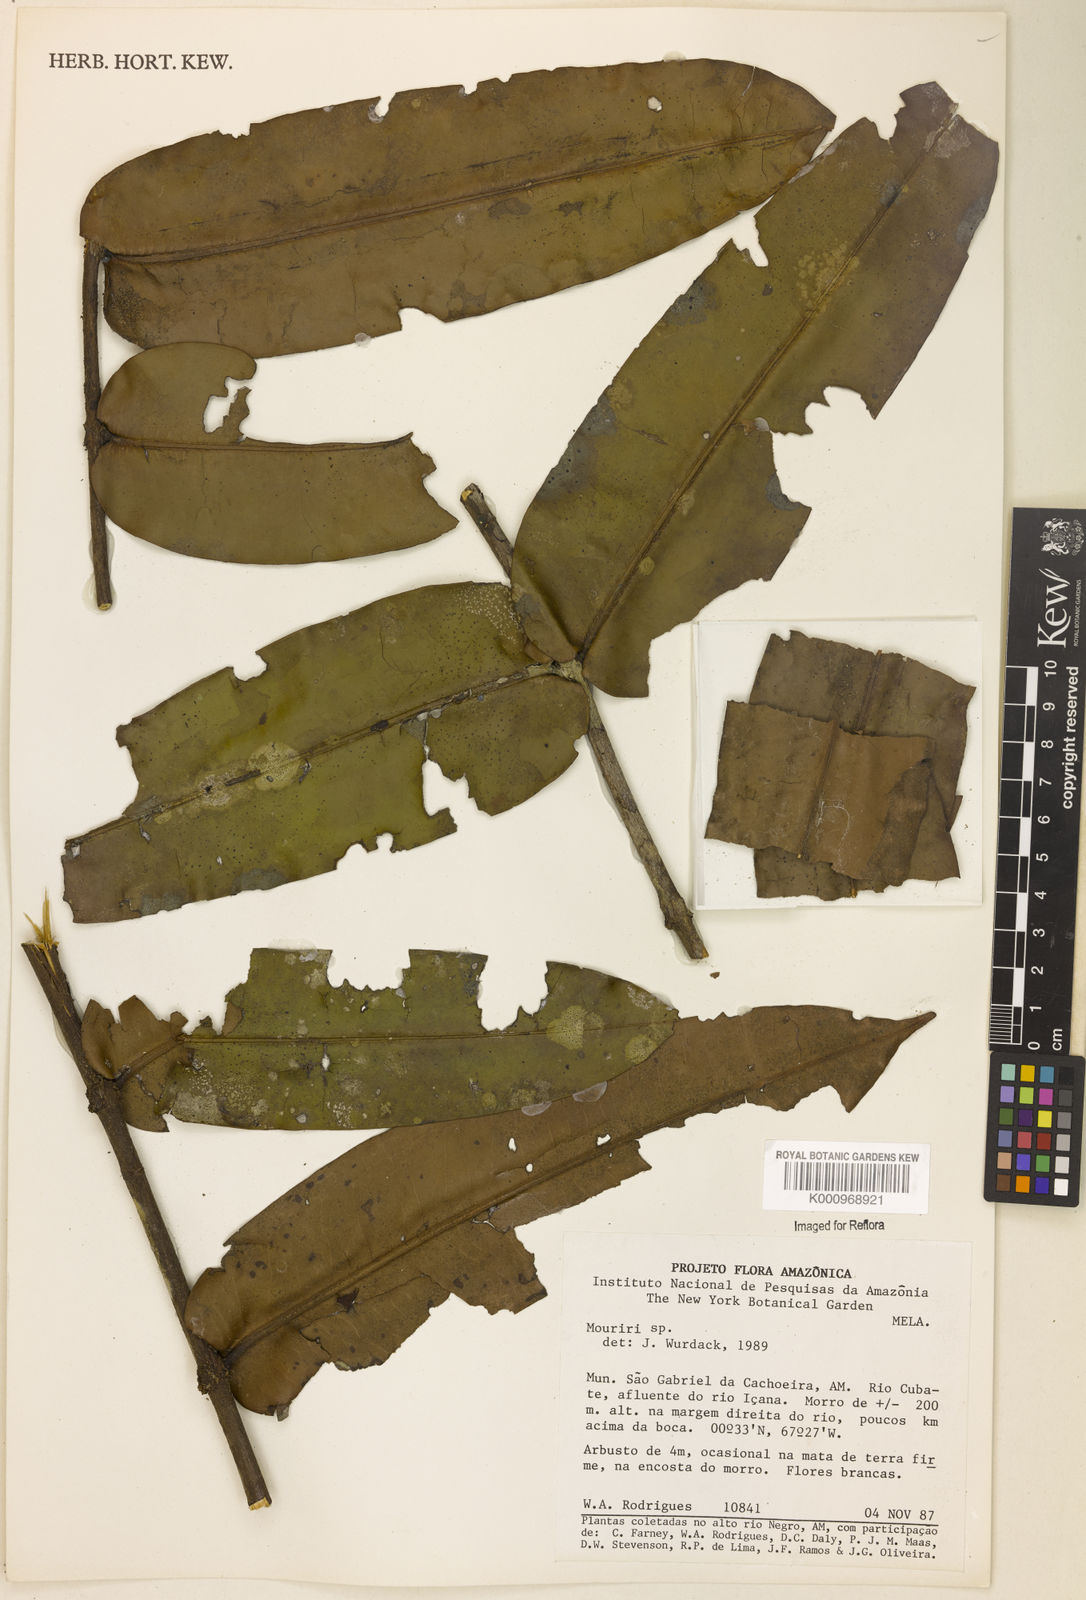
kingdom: Plantae
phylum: Tracheophyta
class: Magnoliopsida
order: Myrtales
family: Melastomataceae
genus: Mouriri
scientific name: Mouriri
